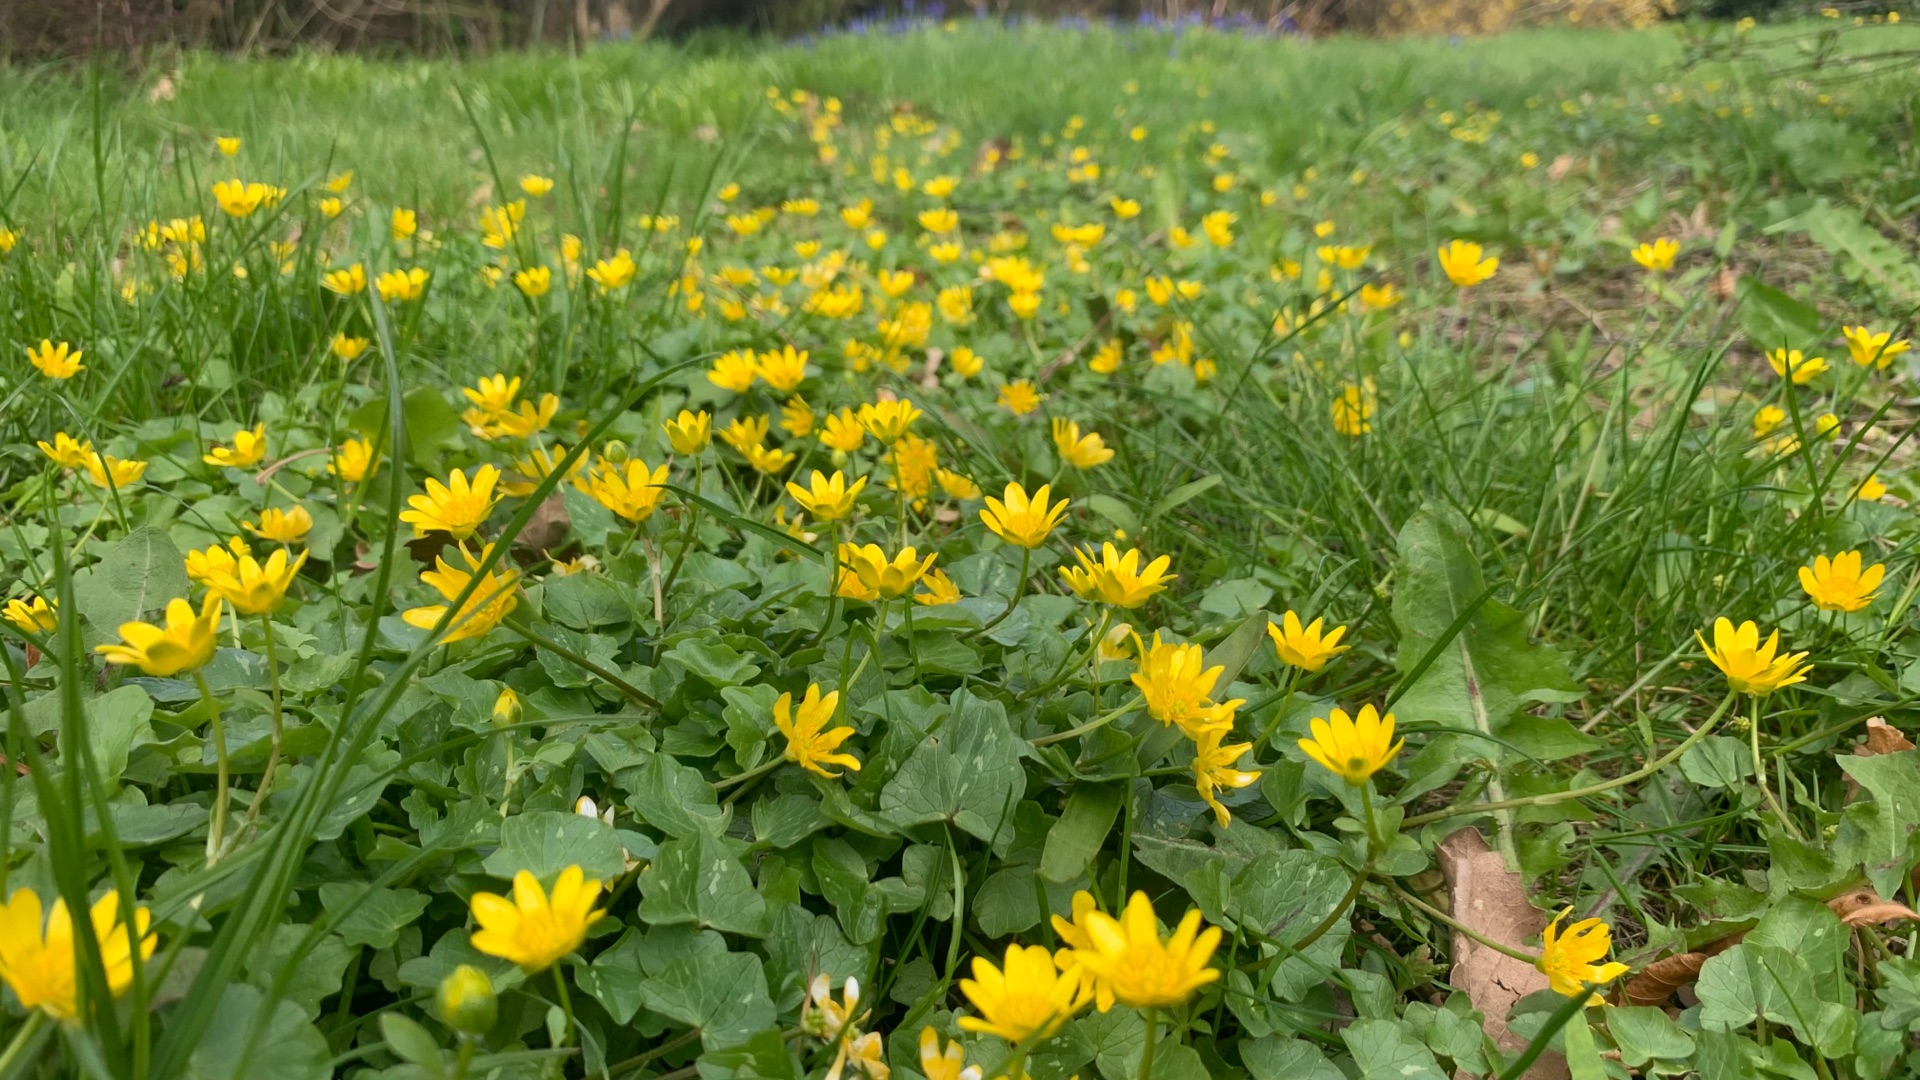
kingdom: Plantae
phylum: Tracheophyta
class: Magnoliopsida
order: Ranunculales
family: Ranunculaceae
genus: Ficaria
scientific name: Ficaria verna
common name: Vorterod
